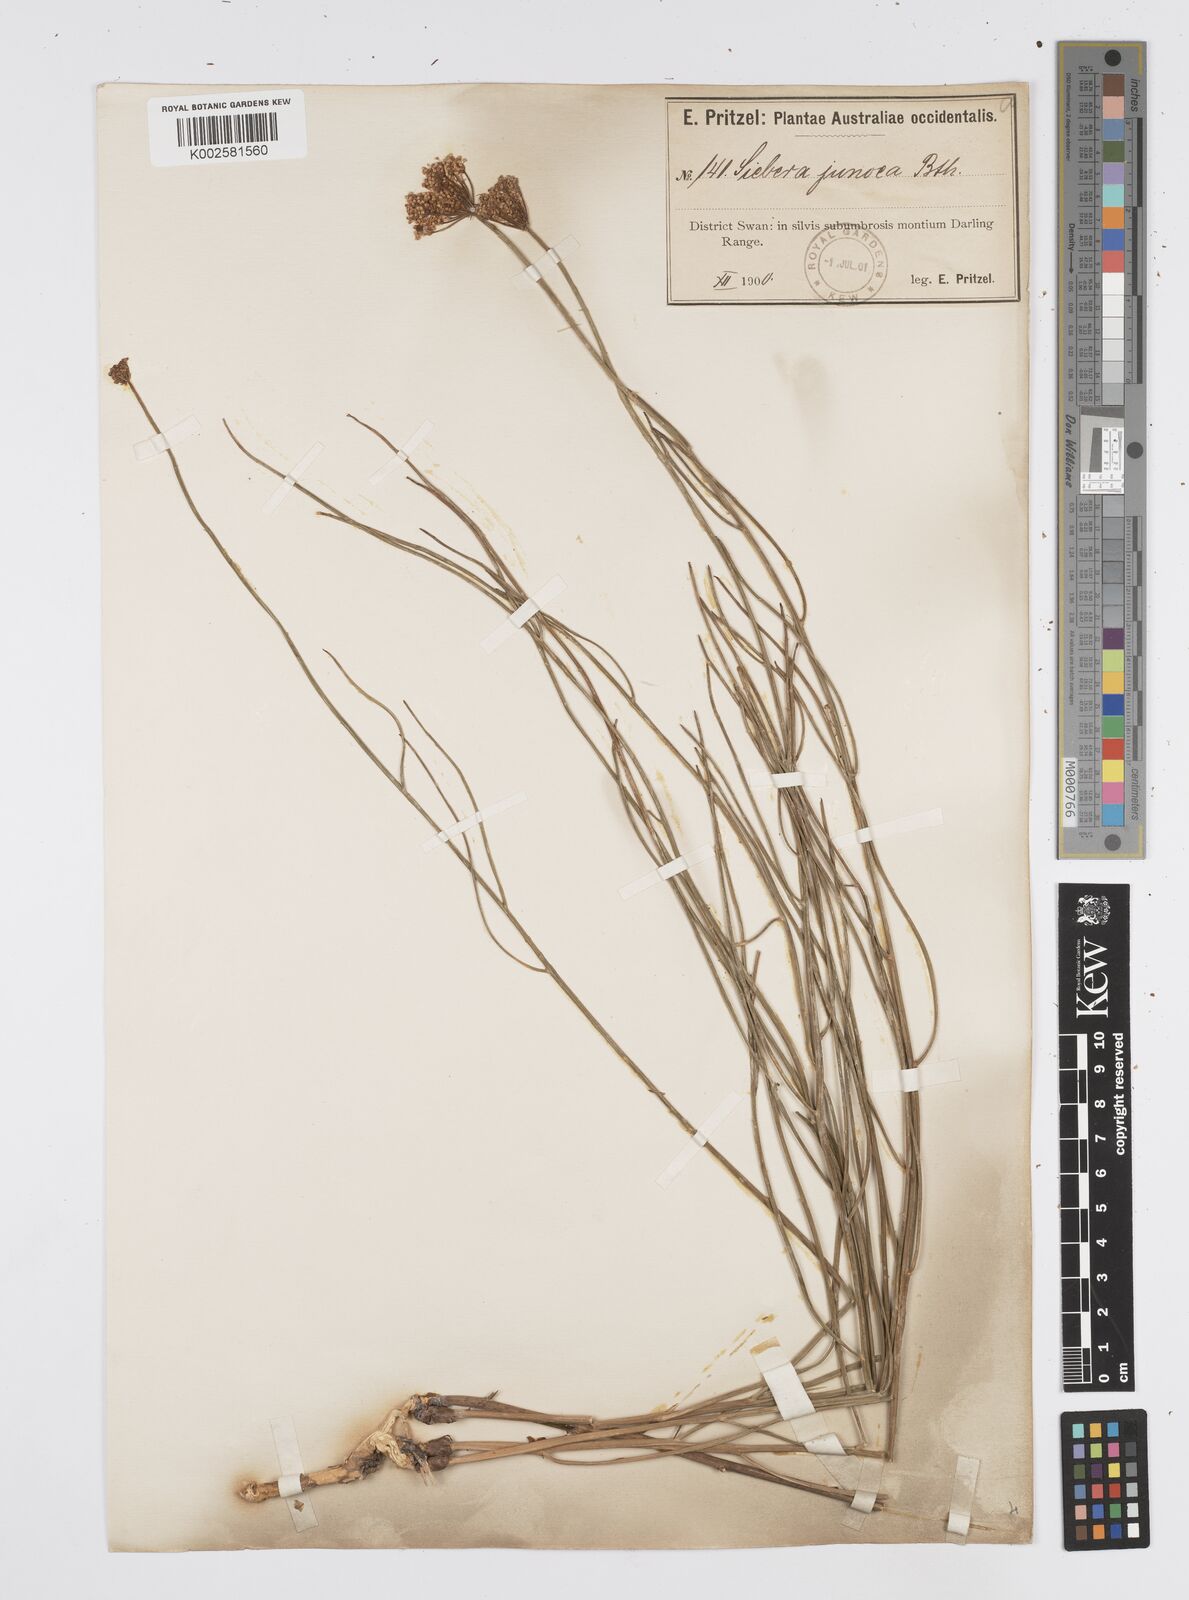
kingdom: Plantae
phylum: Tracheophyta
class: Magnoliopsida
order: Apiales
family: Apiaceae
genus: Platysace
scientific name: Platysace juncea
